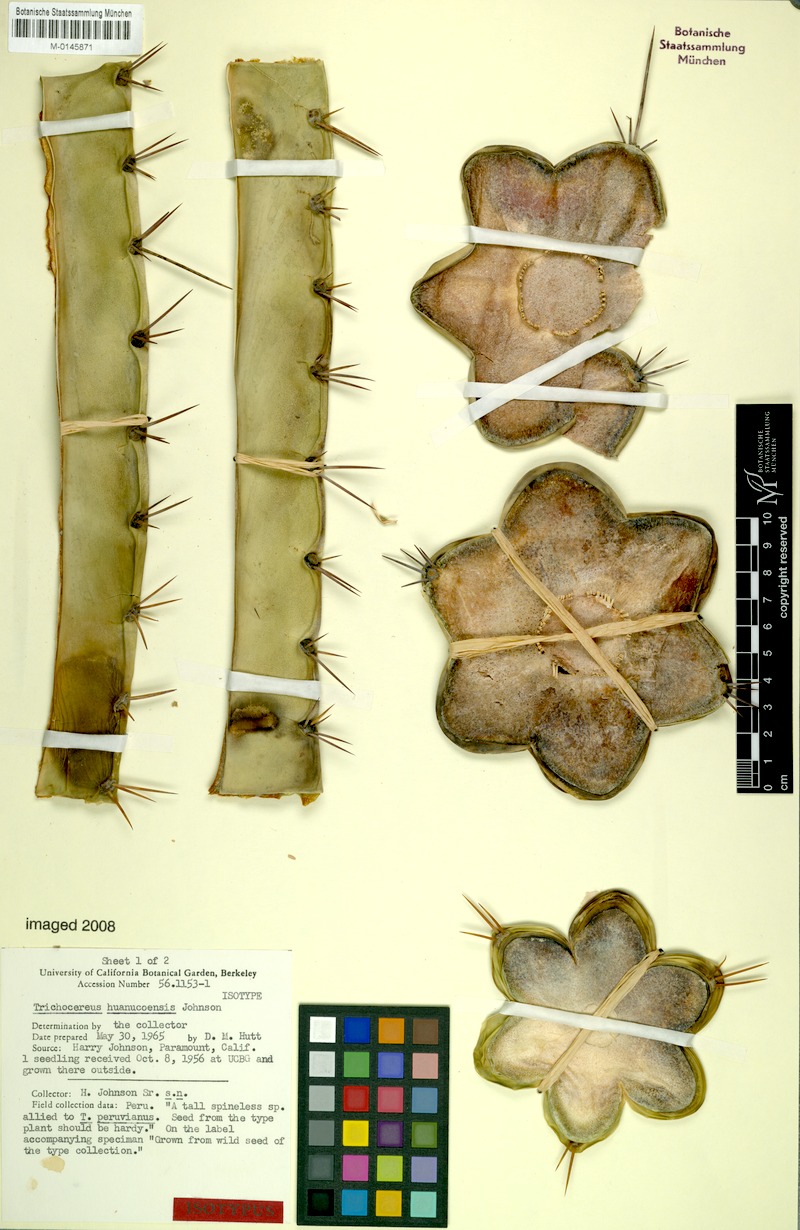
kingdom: Plantae
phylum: Tracheophyta
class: Magnoliopsida
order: Caryophyllales
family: Cactaceae
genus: Trichocereus
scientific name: Trichocereus huanucoensis
